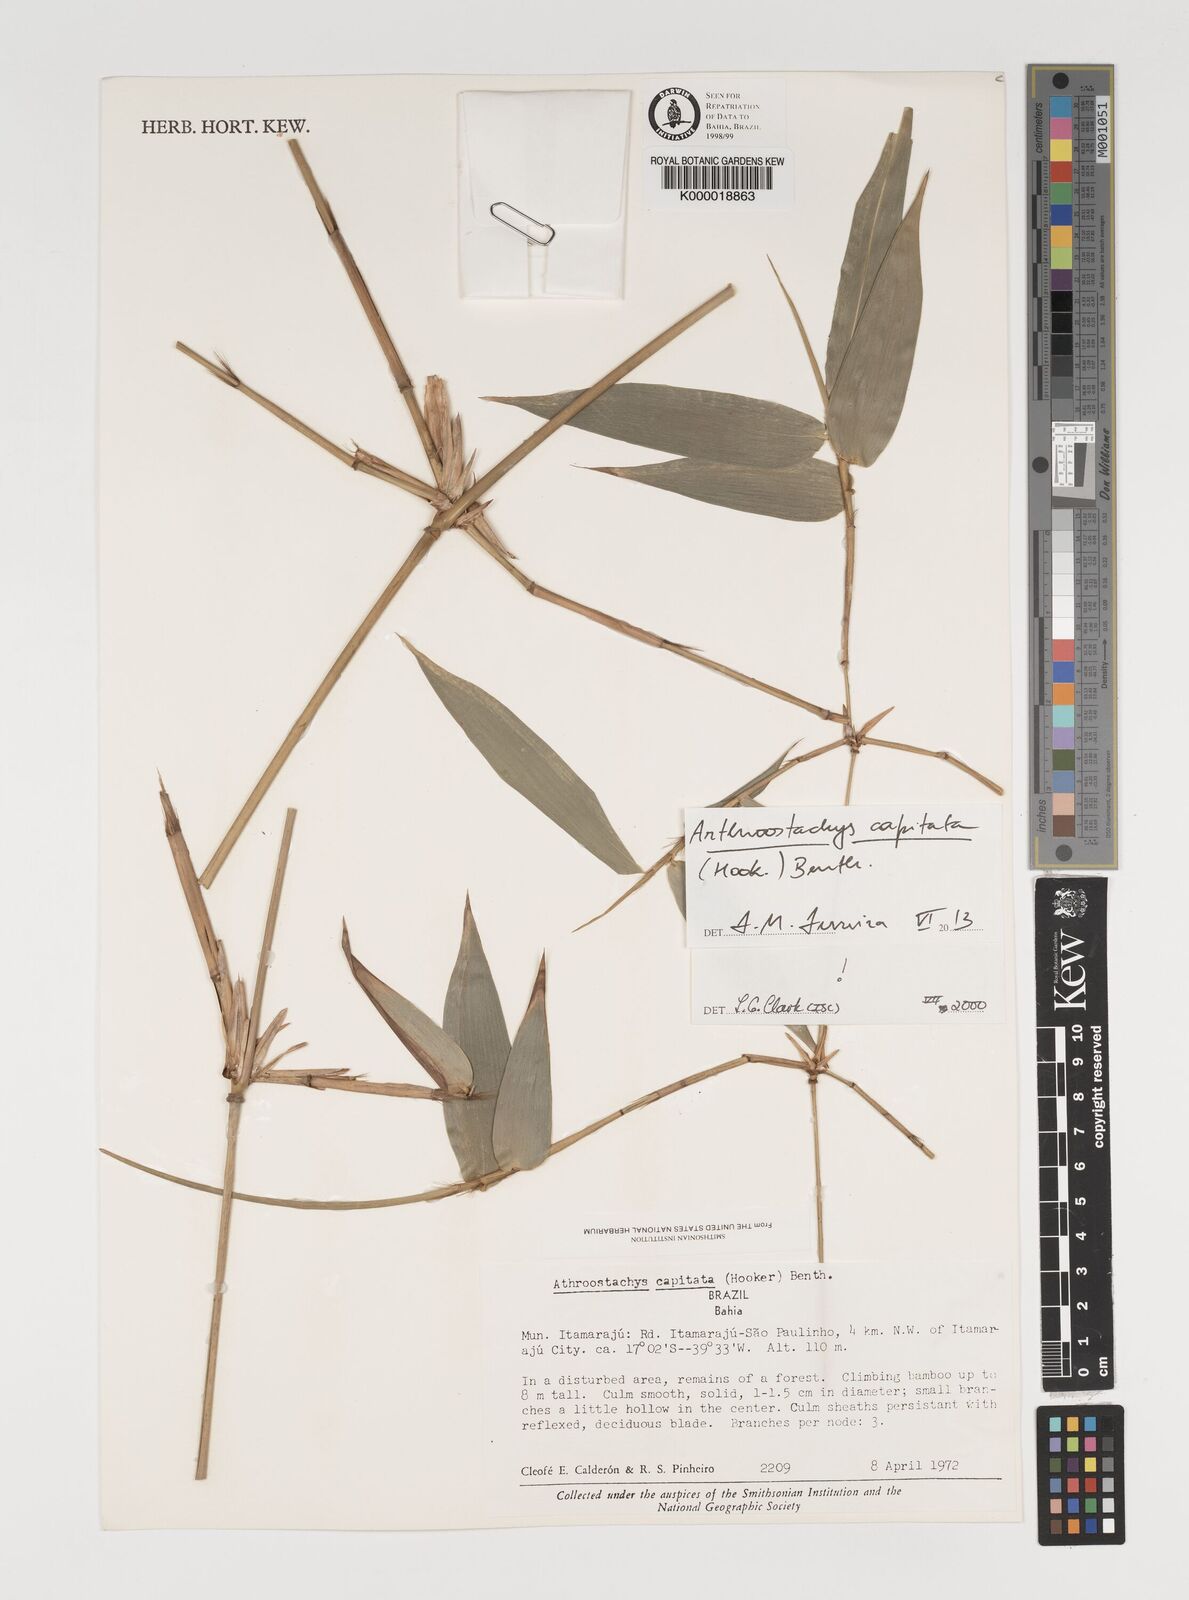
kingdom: Plantae
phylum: Tracheophyta
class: Liliopsida
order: Poales
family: Poaceae
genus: Athroostachys
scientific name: Athroostachys capitata
